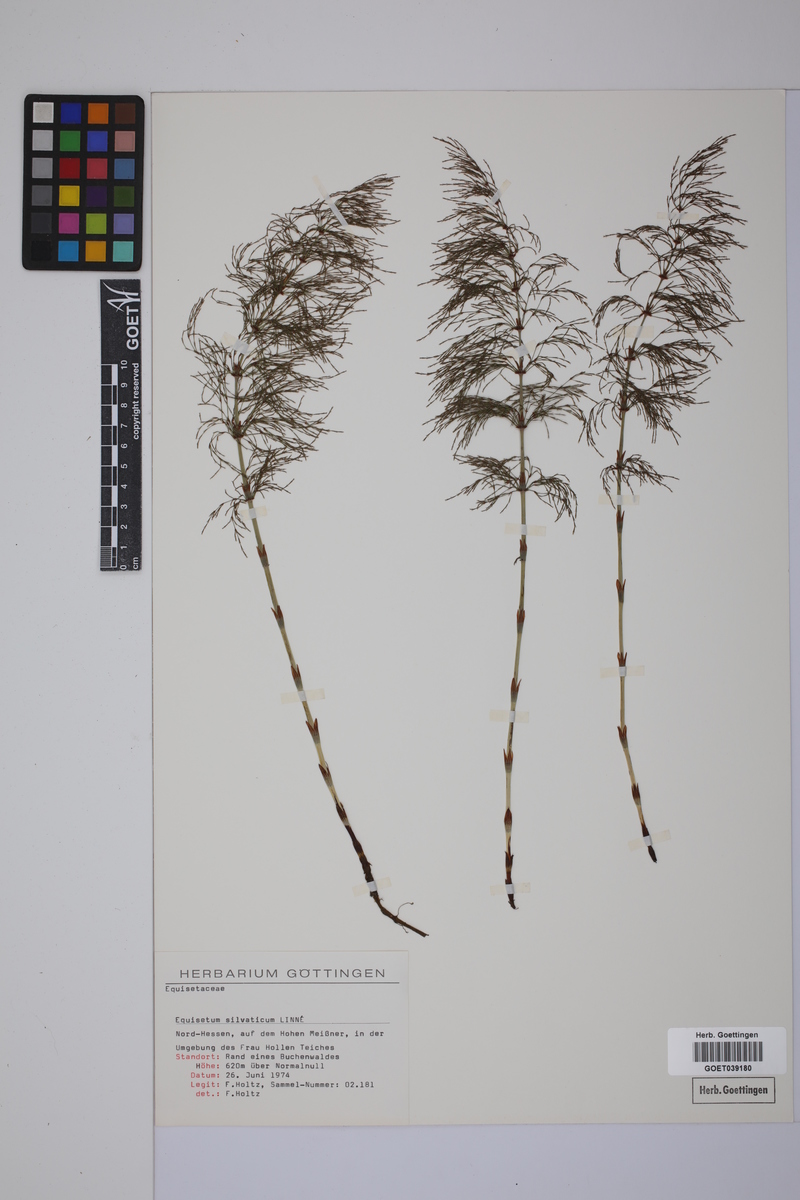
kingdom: Plantae
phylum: Tracheophyta
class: Polypodiopsida
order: Equisetales
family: Equisetaceae
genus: Equisetum
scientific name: Equisetum sylvaticum
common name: Wood horsetail
